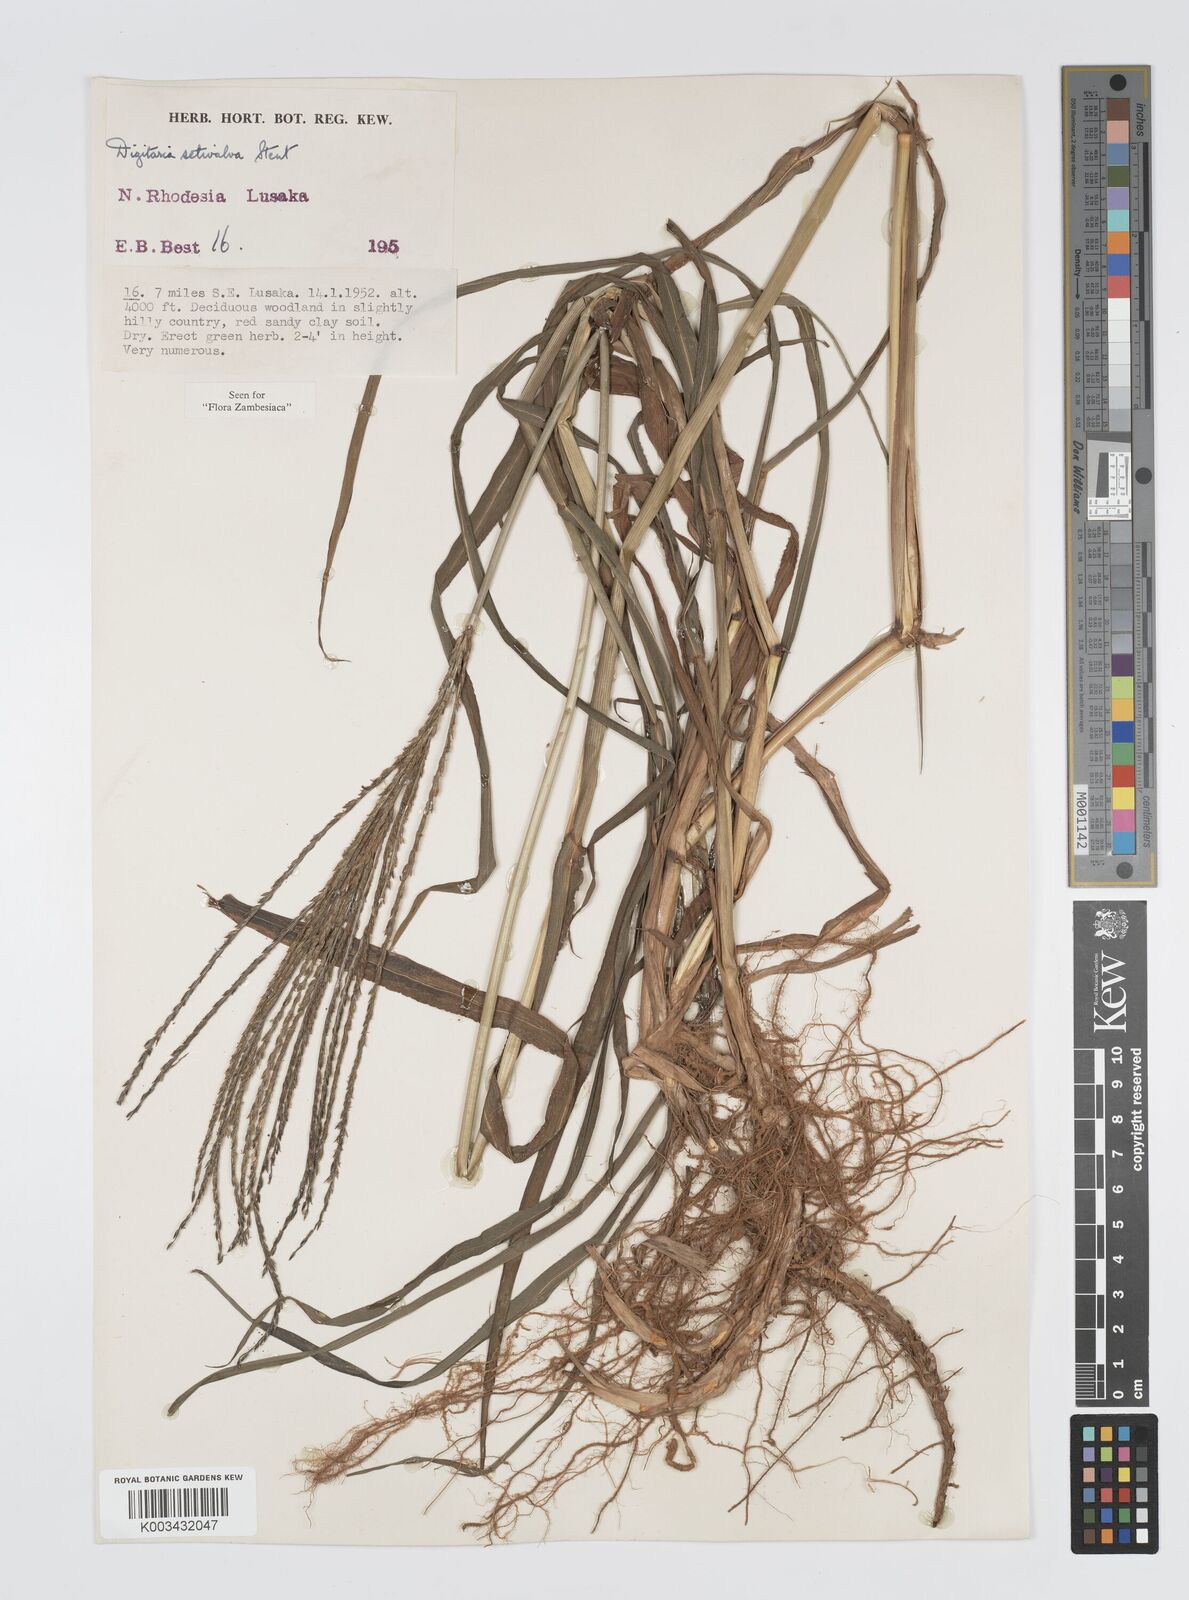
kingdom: Plantae
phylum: Tracheophyta
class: Liliopsida
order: Poales
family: Poaceae
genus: Digitaria
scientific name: Digitaria milanjiana
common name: Madagascar crabgrass
